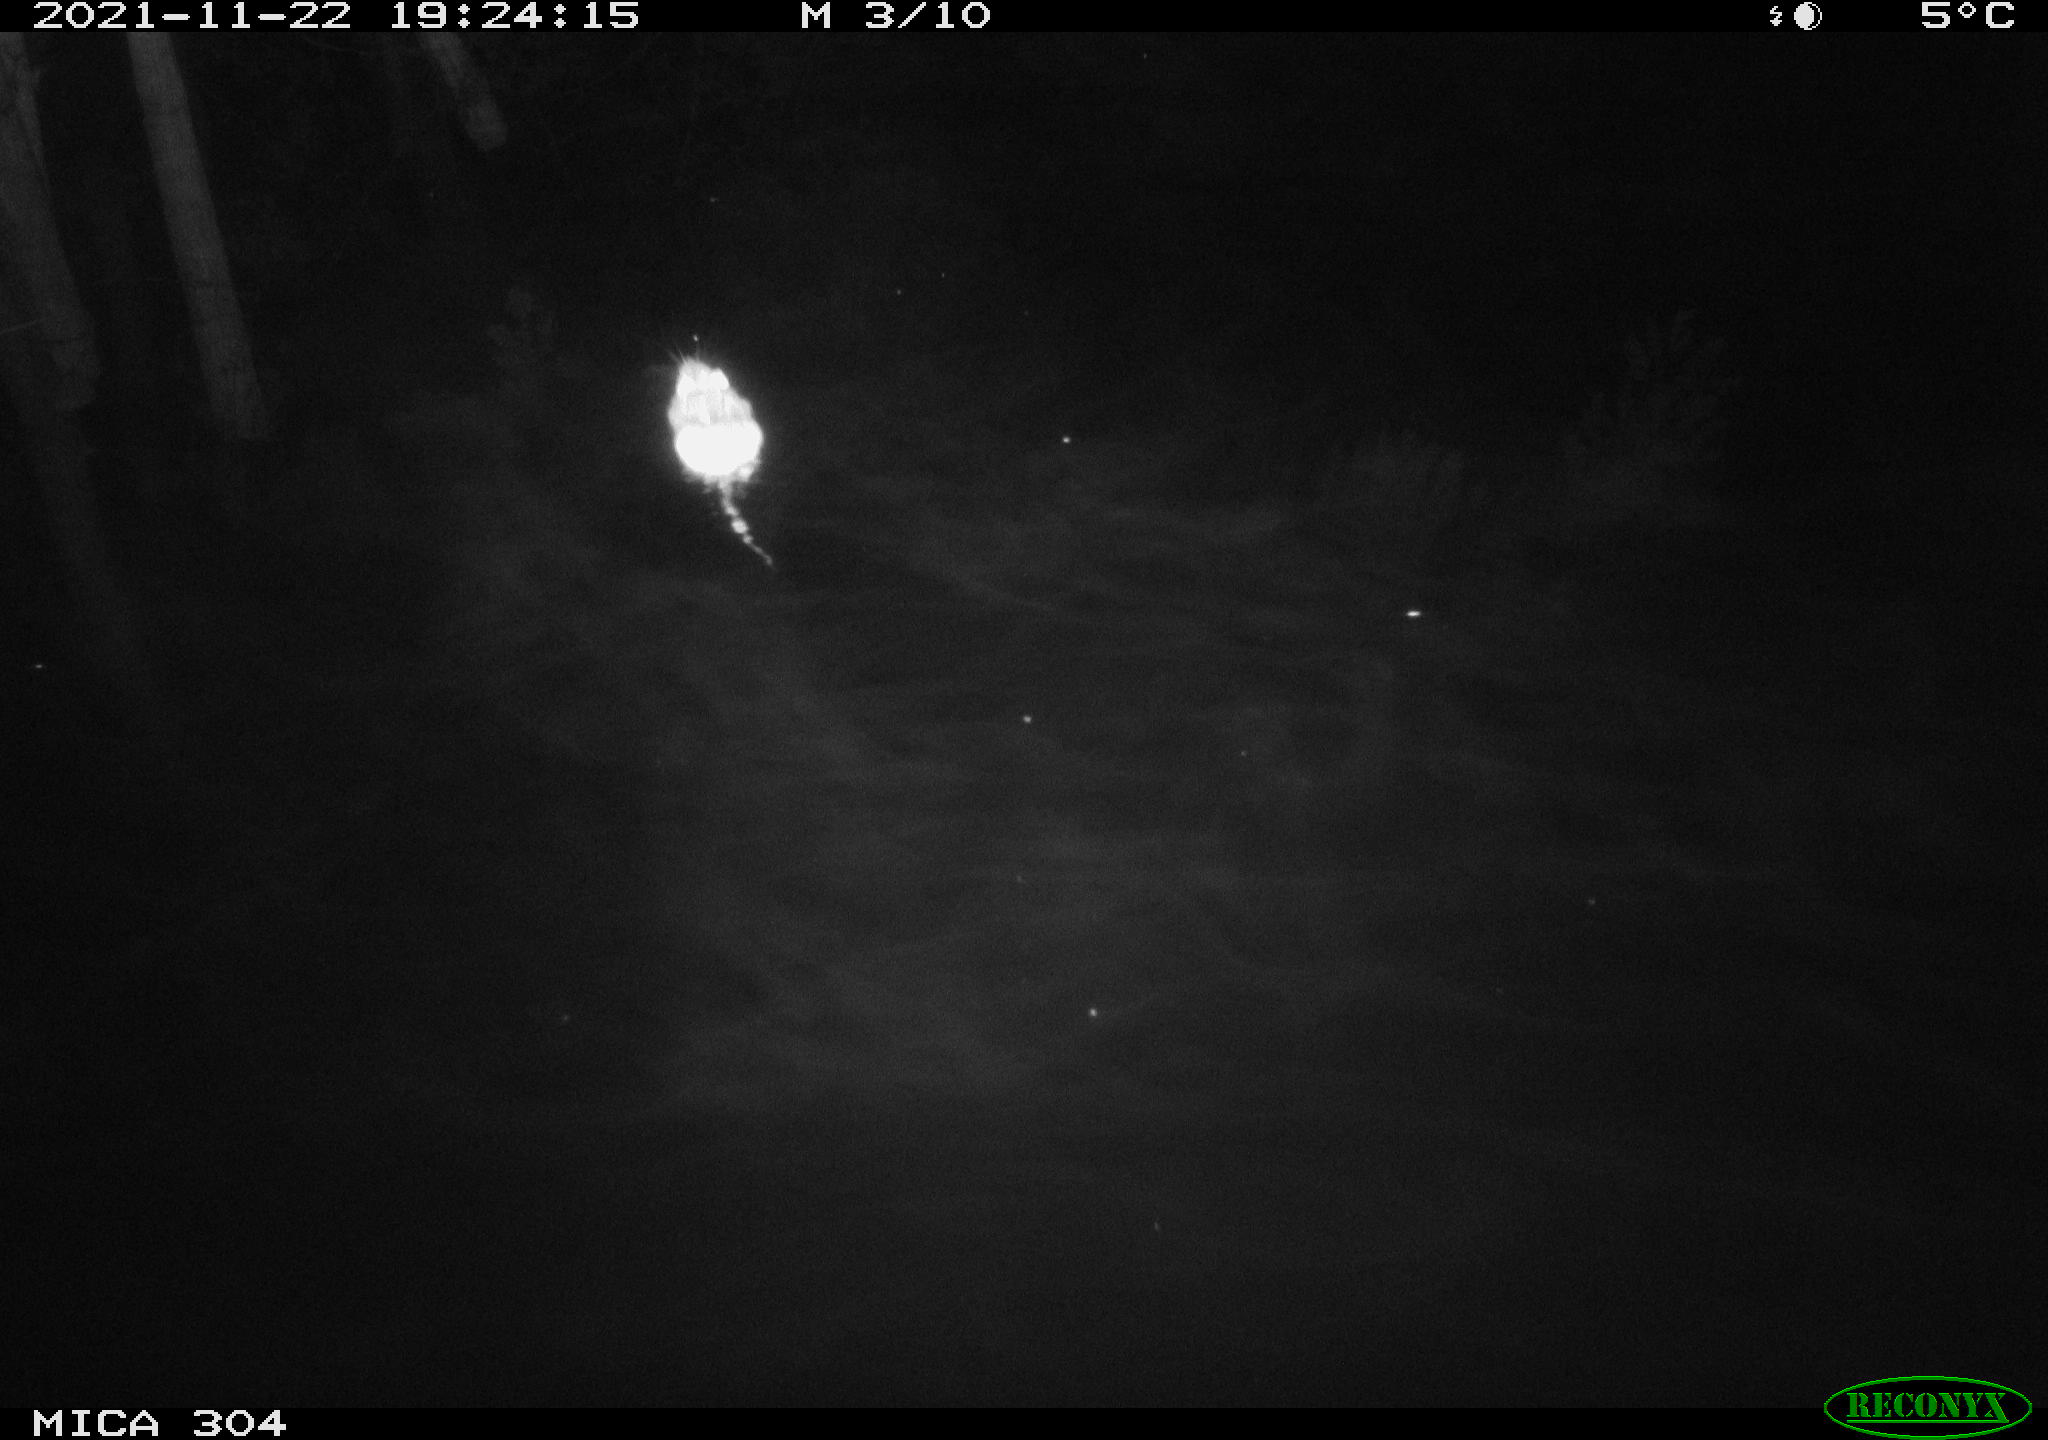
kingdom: Animalia
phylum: Chordata
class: Mammalia
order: Rodentia
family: Muridae
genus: Rattus
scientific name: Rattus norvegicus
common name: Brown rat
